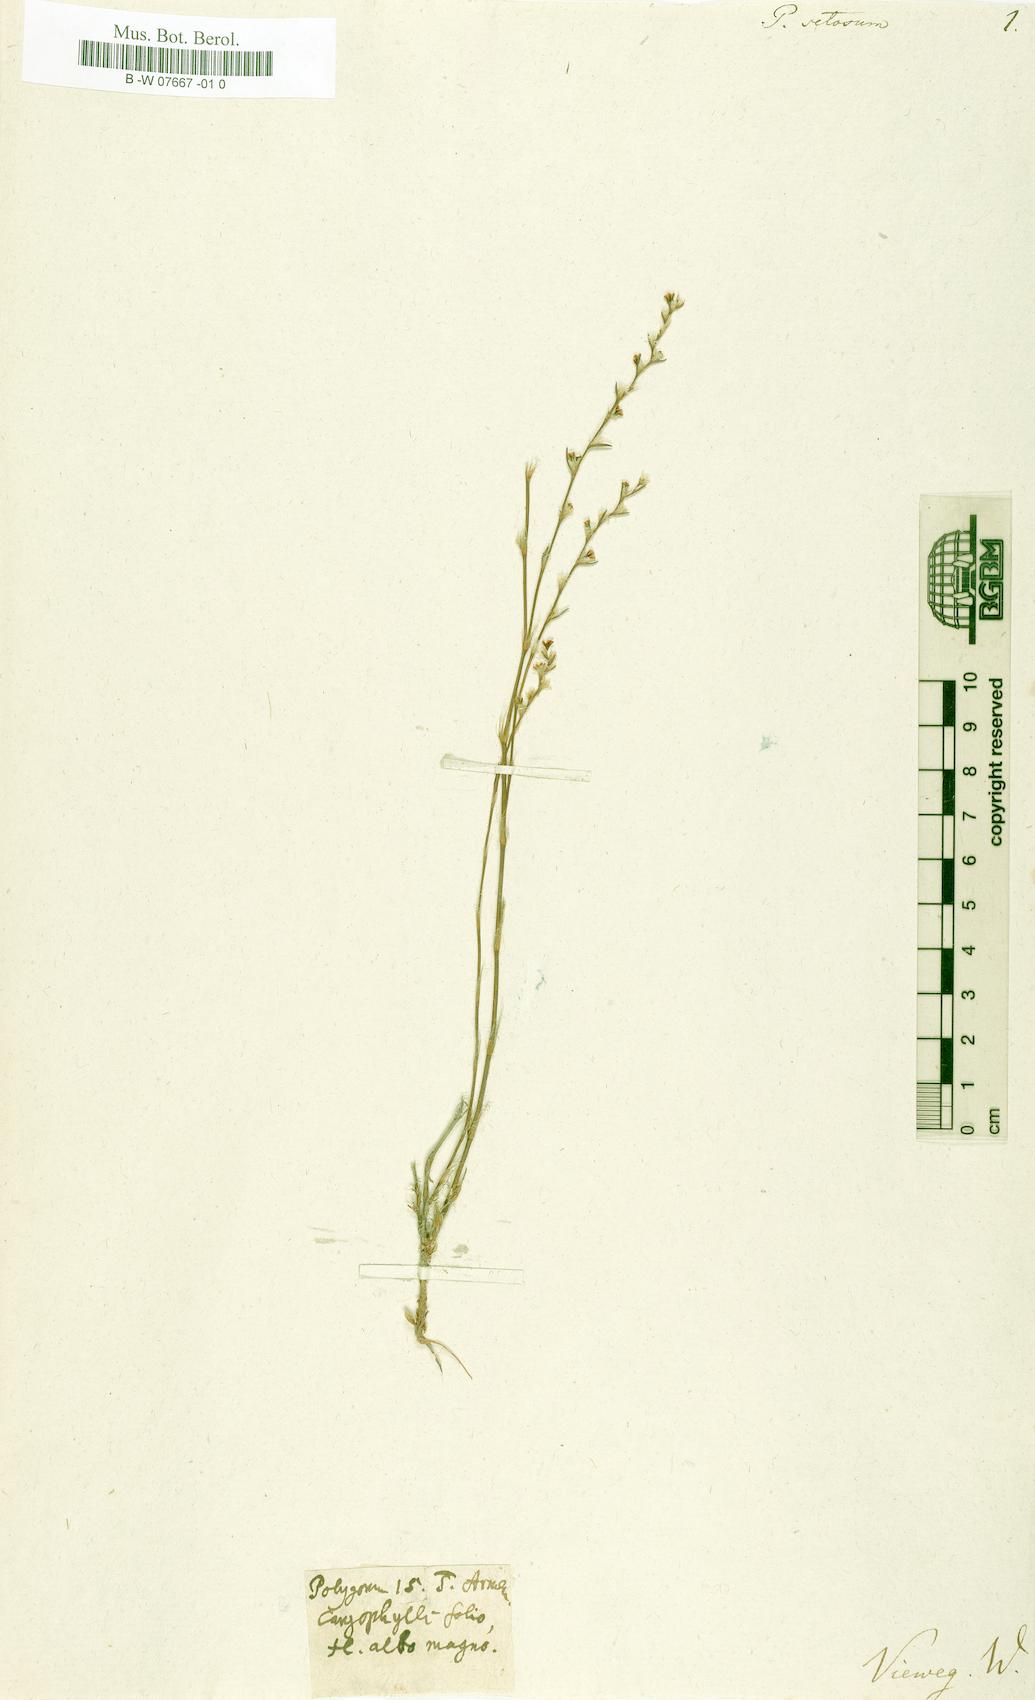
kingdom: Plantae
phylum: Tracheophyta
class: Magnoliopsida
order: Caryophyllales
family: Polygonaceae
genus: Polygonum
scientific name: Polygonum setosum
